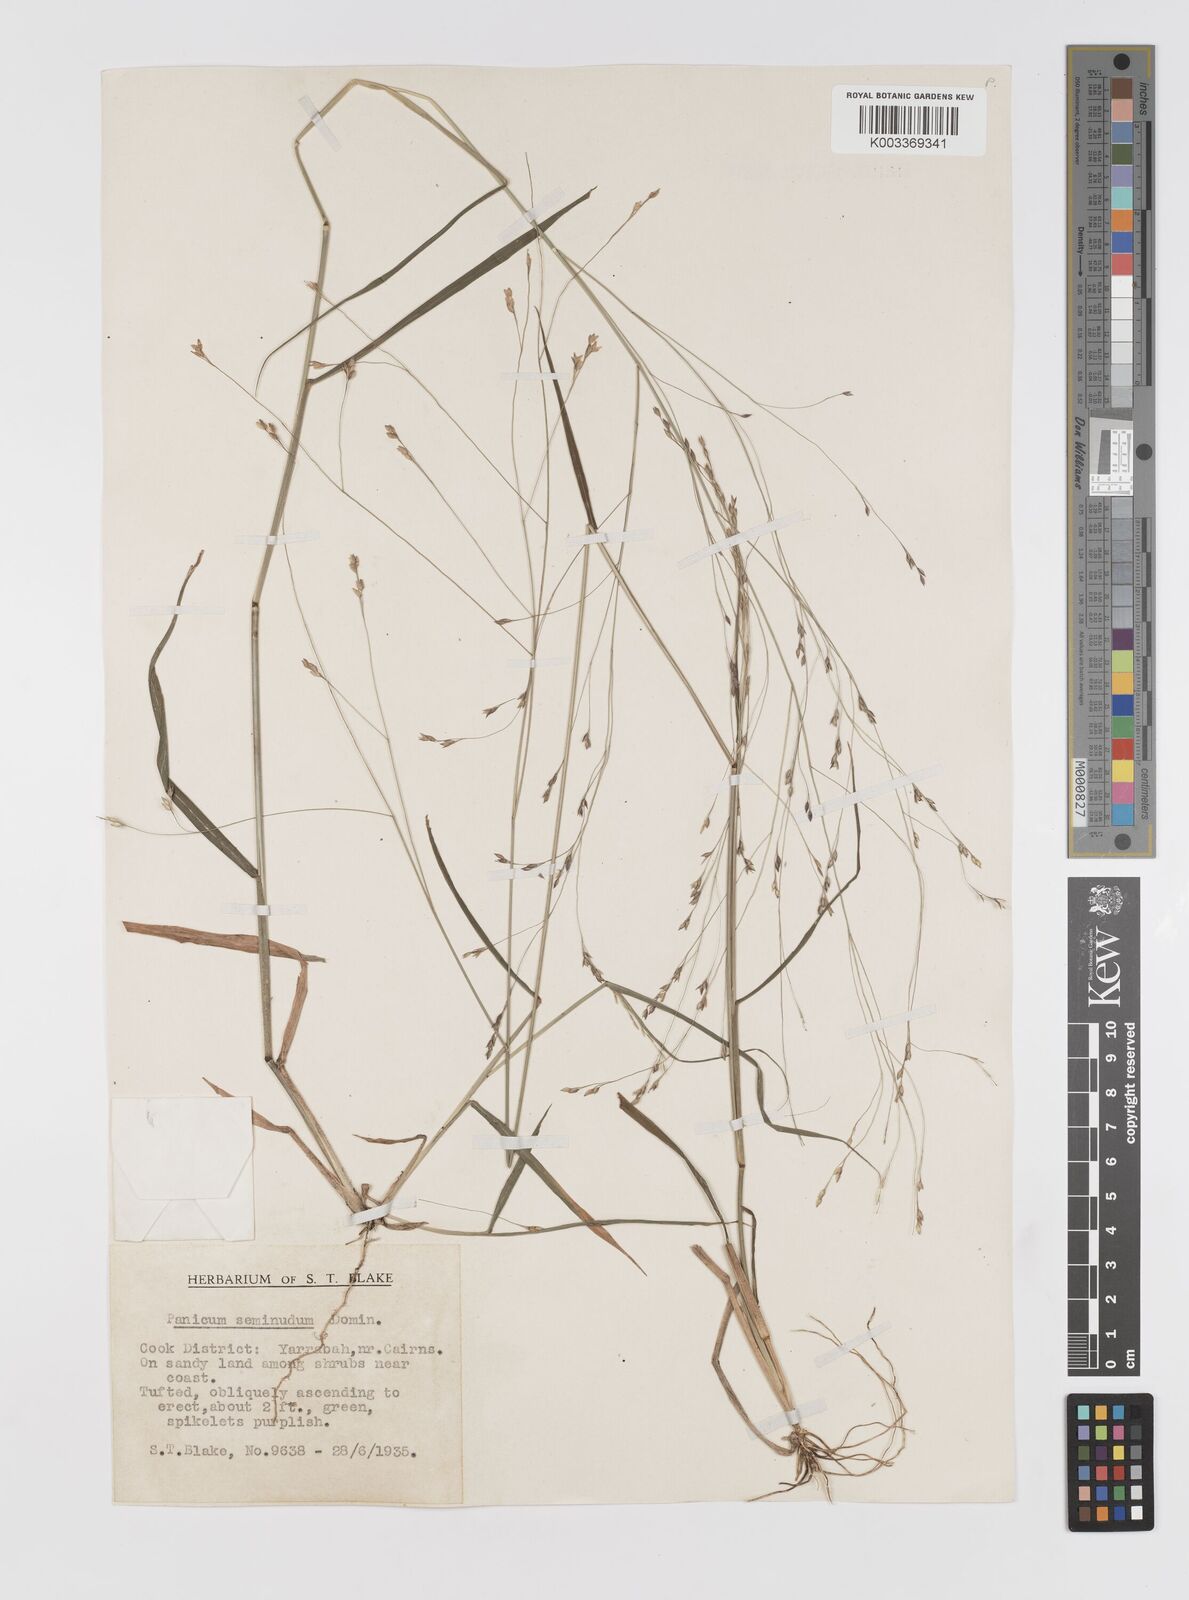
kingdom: Plantae
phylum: Tracheophyta
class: Liliopsida
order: Poales
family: Poaceae
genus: Panicum
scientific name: Panicum seminudum
